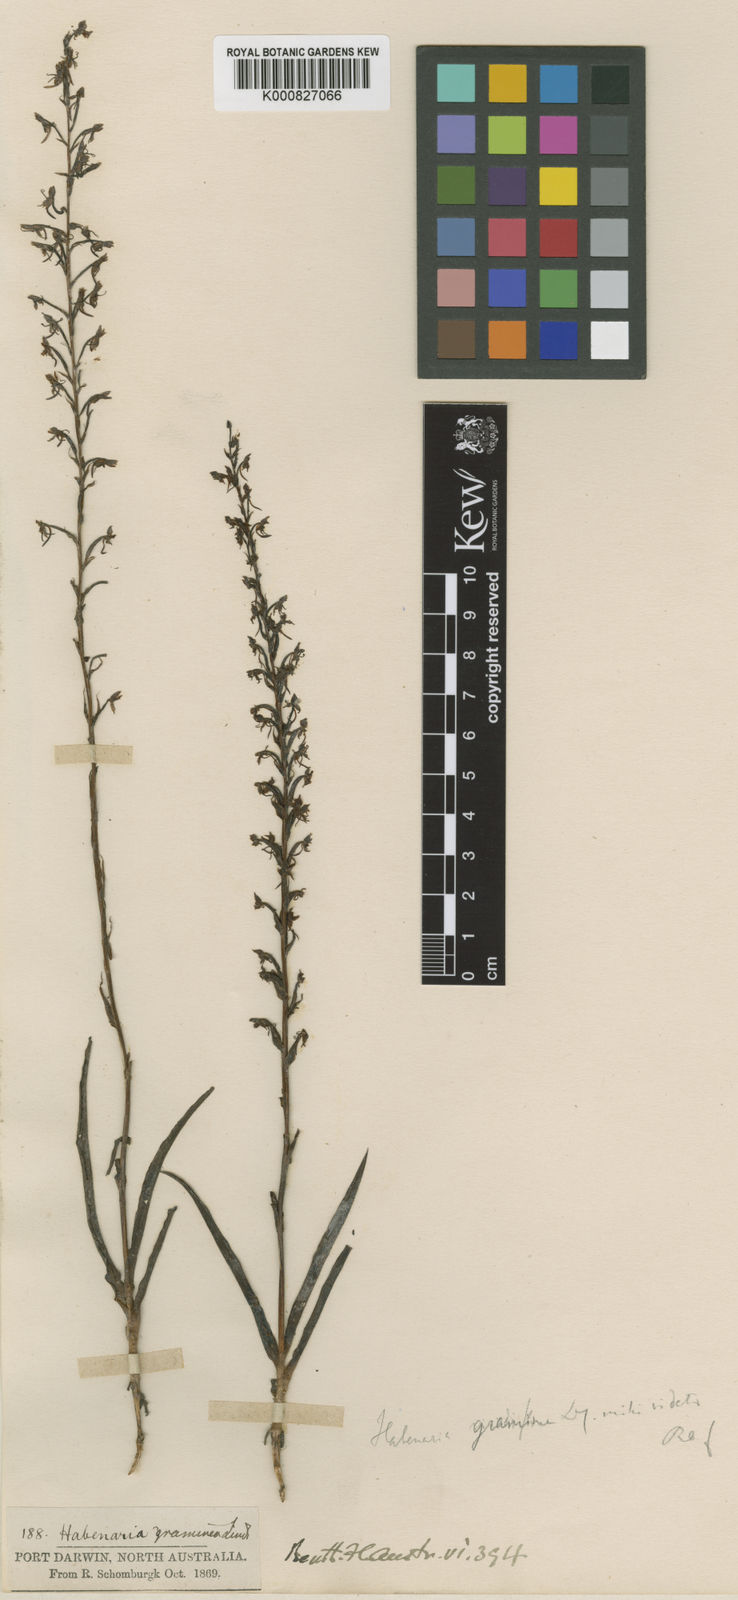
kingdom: Plantae
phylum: Tracheophyta
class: Liliopsida
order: Asparagales
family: Orchidaceae
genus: Habenaria
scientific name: Habenaria khasiana
